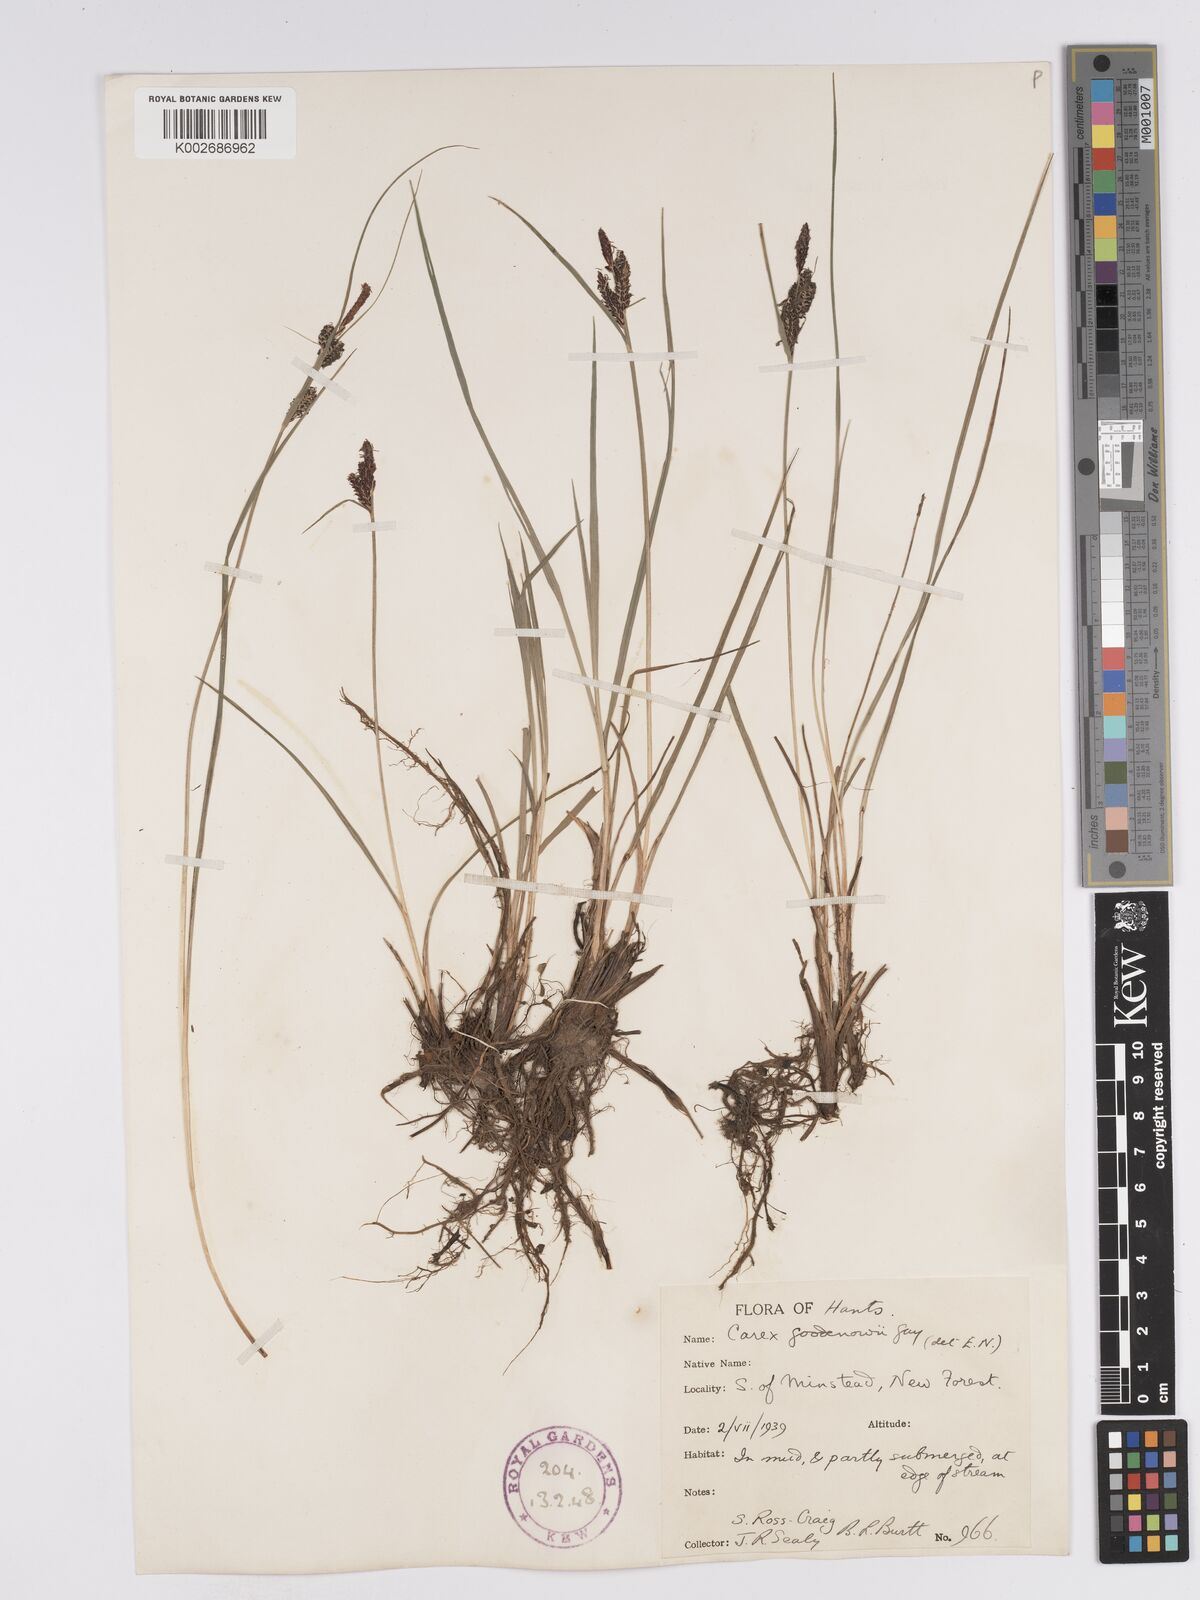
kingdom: Plantae
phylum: Tracheophyta
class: Liliopsida
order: Poales
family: Cyperaceae
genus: Carex
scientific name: Carex nigra
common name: Common sedge
